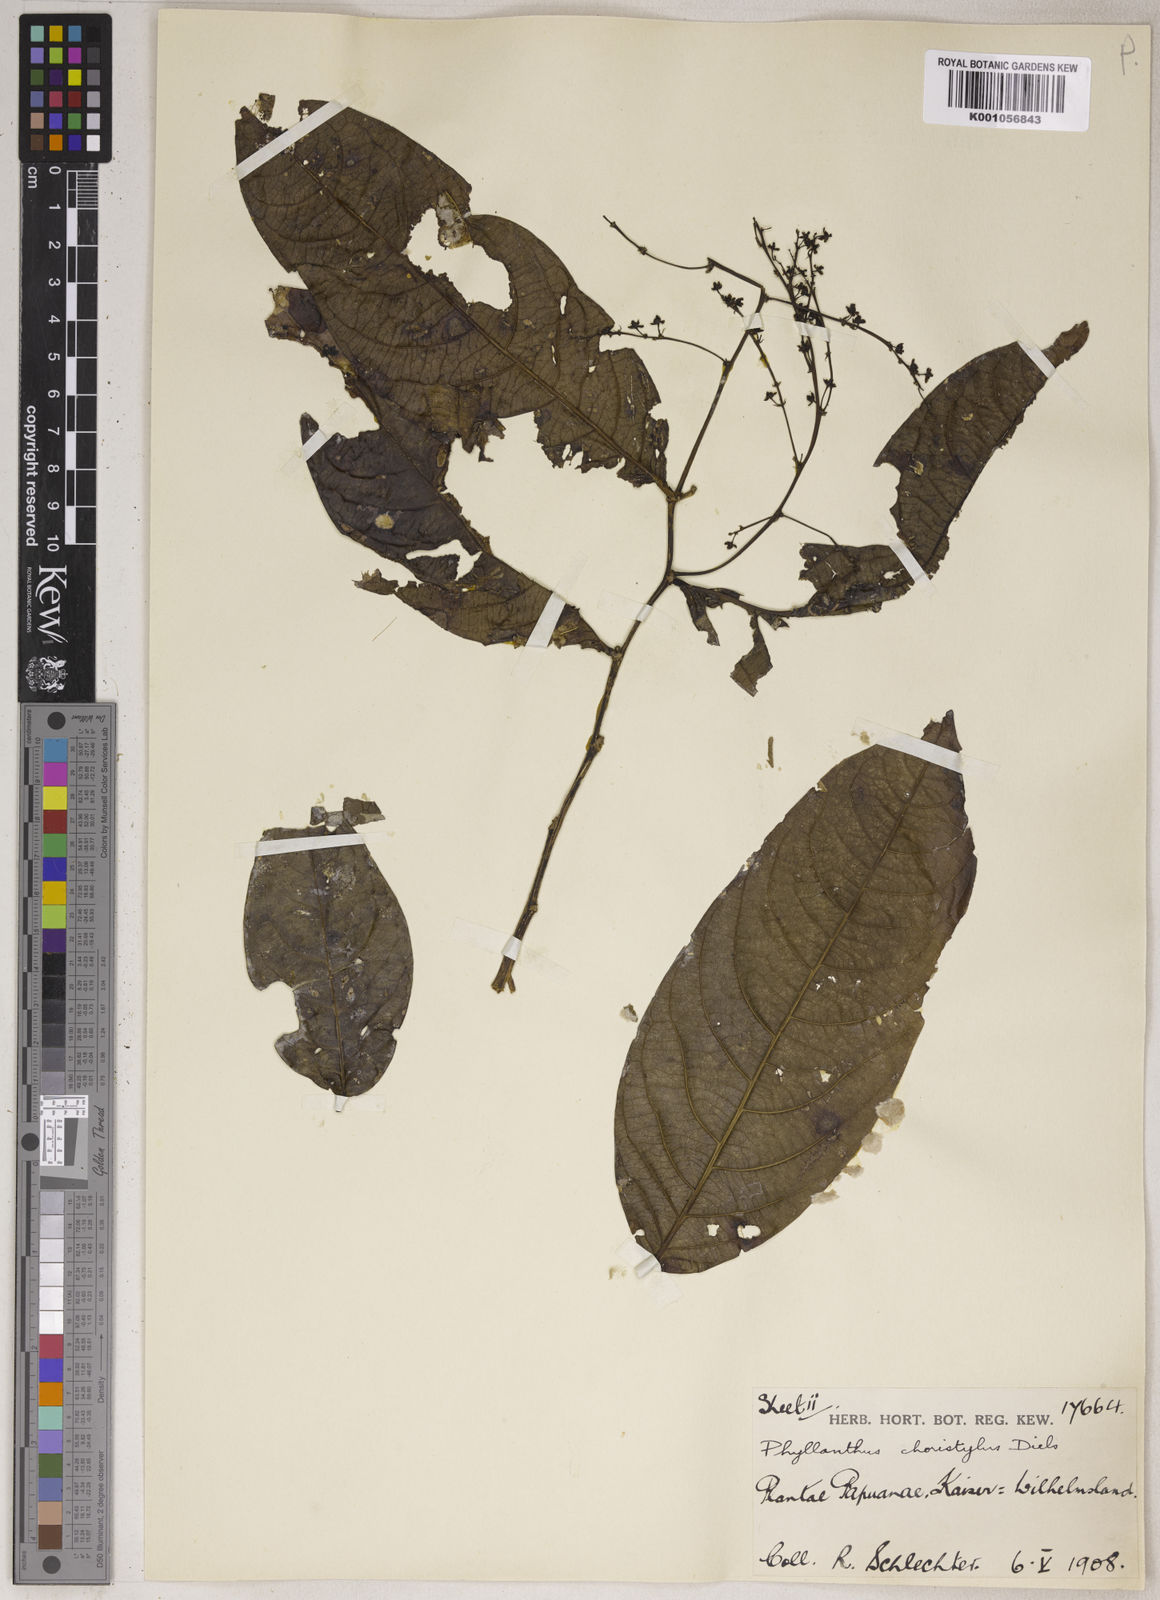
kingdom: Plantae
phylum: Tracheophyta
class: Magnoliopsida
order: Malpighiales
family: Phyllanthaceae
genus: Phyllanthus
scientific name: Phyllanthus clamboides
